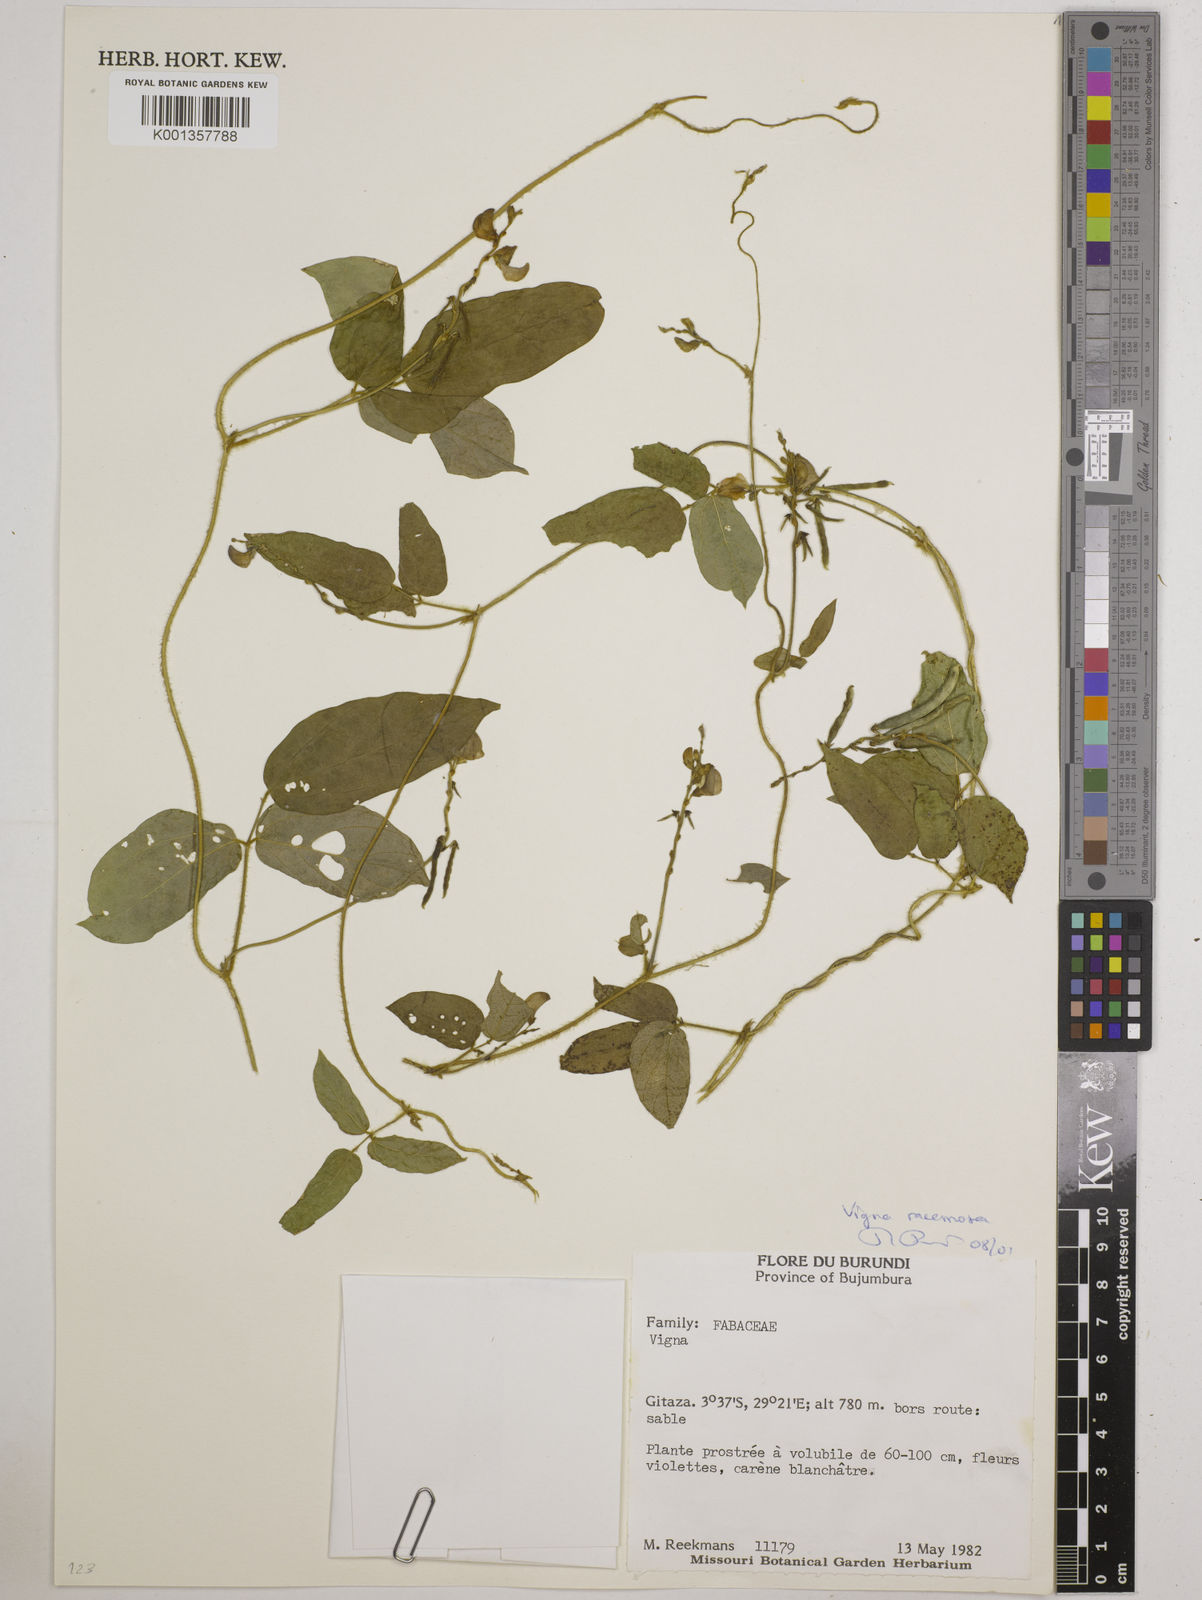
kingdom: Plantae
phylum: Tracheophyta
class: Magnoliopsida
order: Fabales
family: Fabaceae
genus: Vigna
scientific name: Vigna
